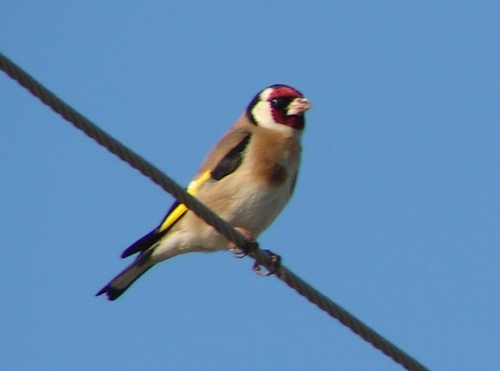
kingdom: Animalia
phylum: Chordata
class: Aves
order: Passeriformes
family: Fringillidae
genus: Carduelis
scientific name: Carduelis carduelis
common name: European goldfinch
